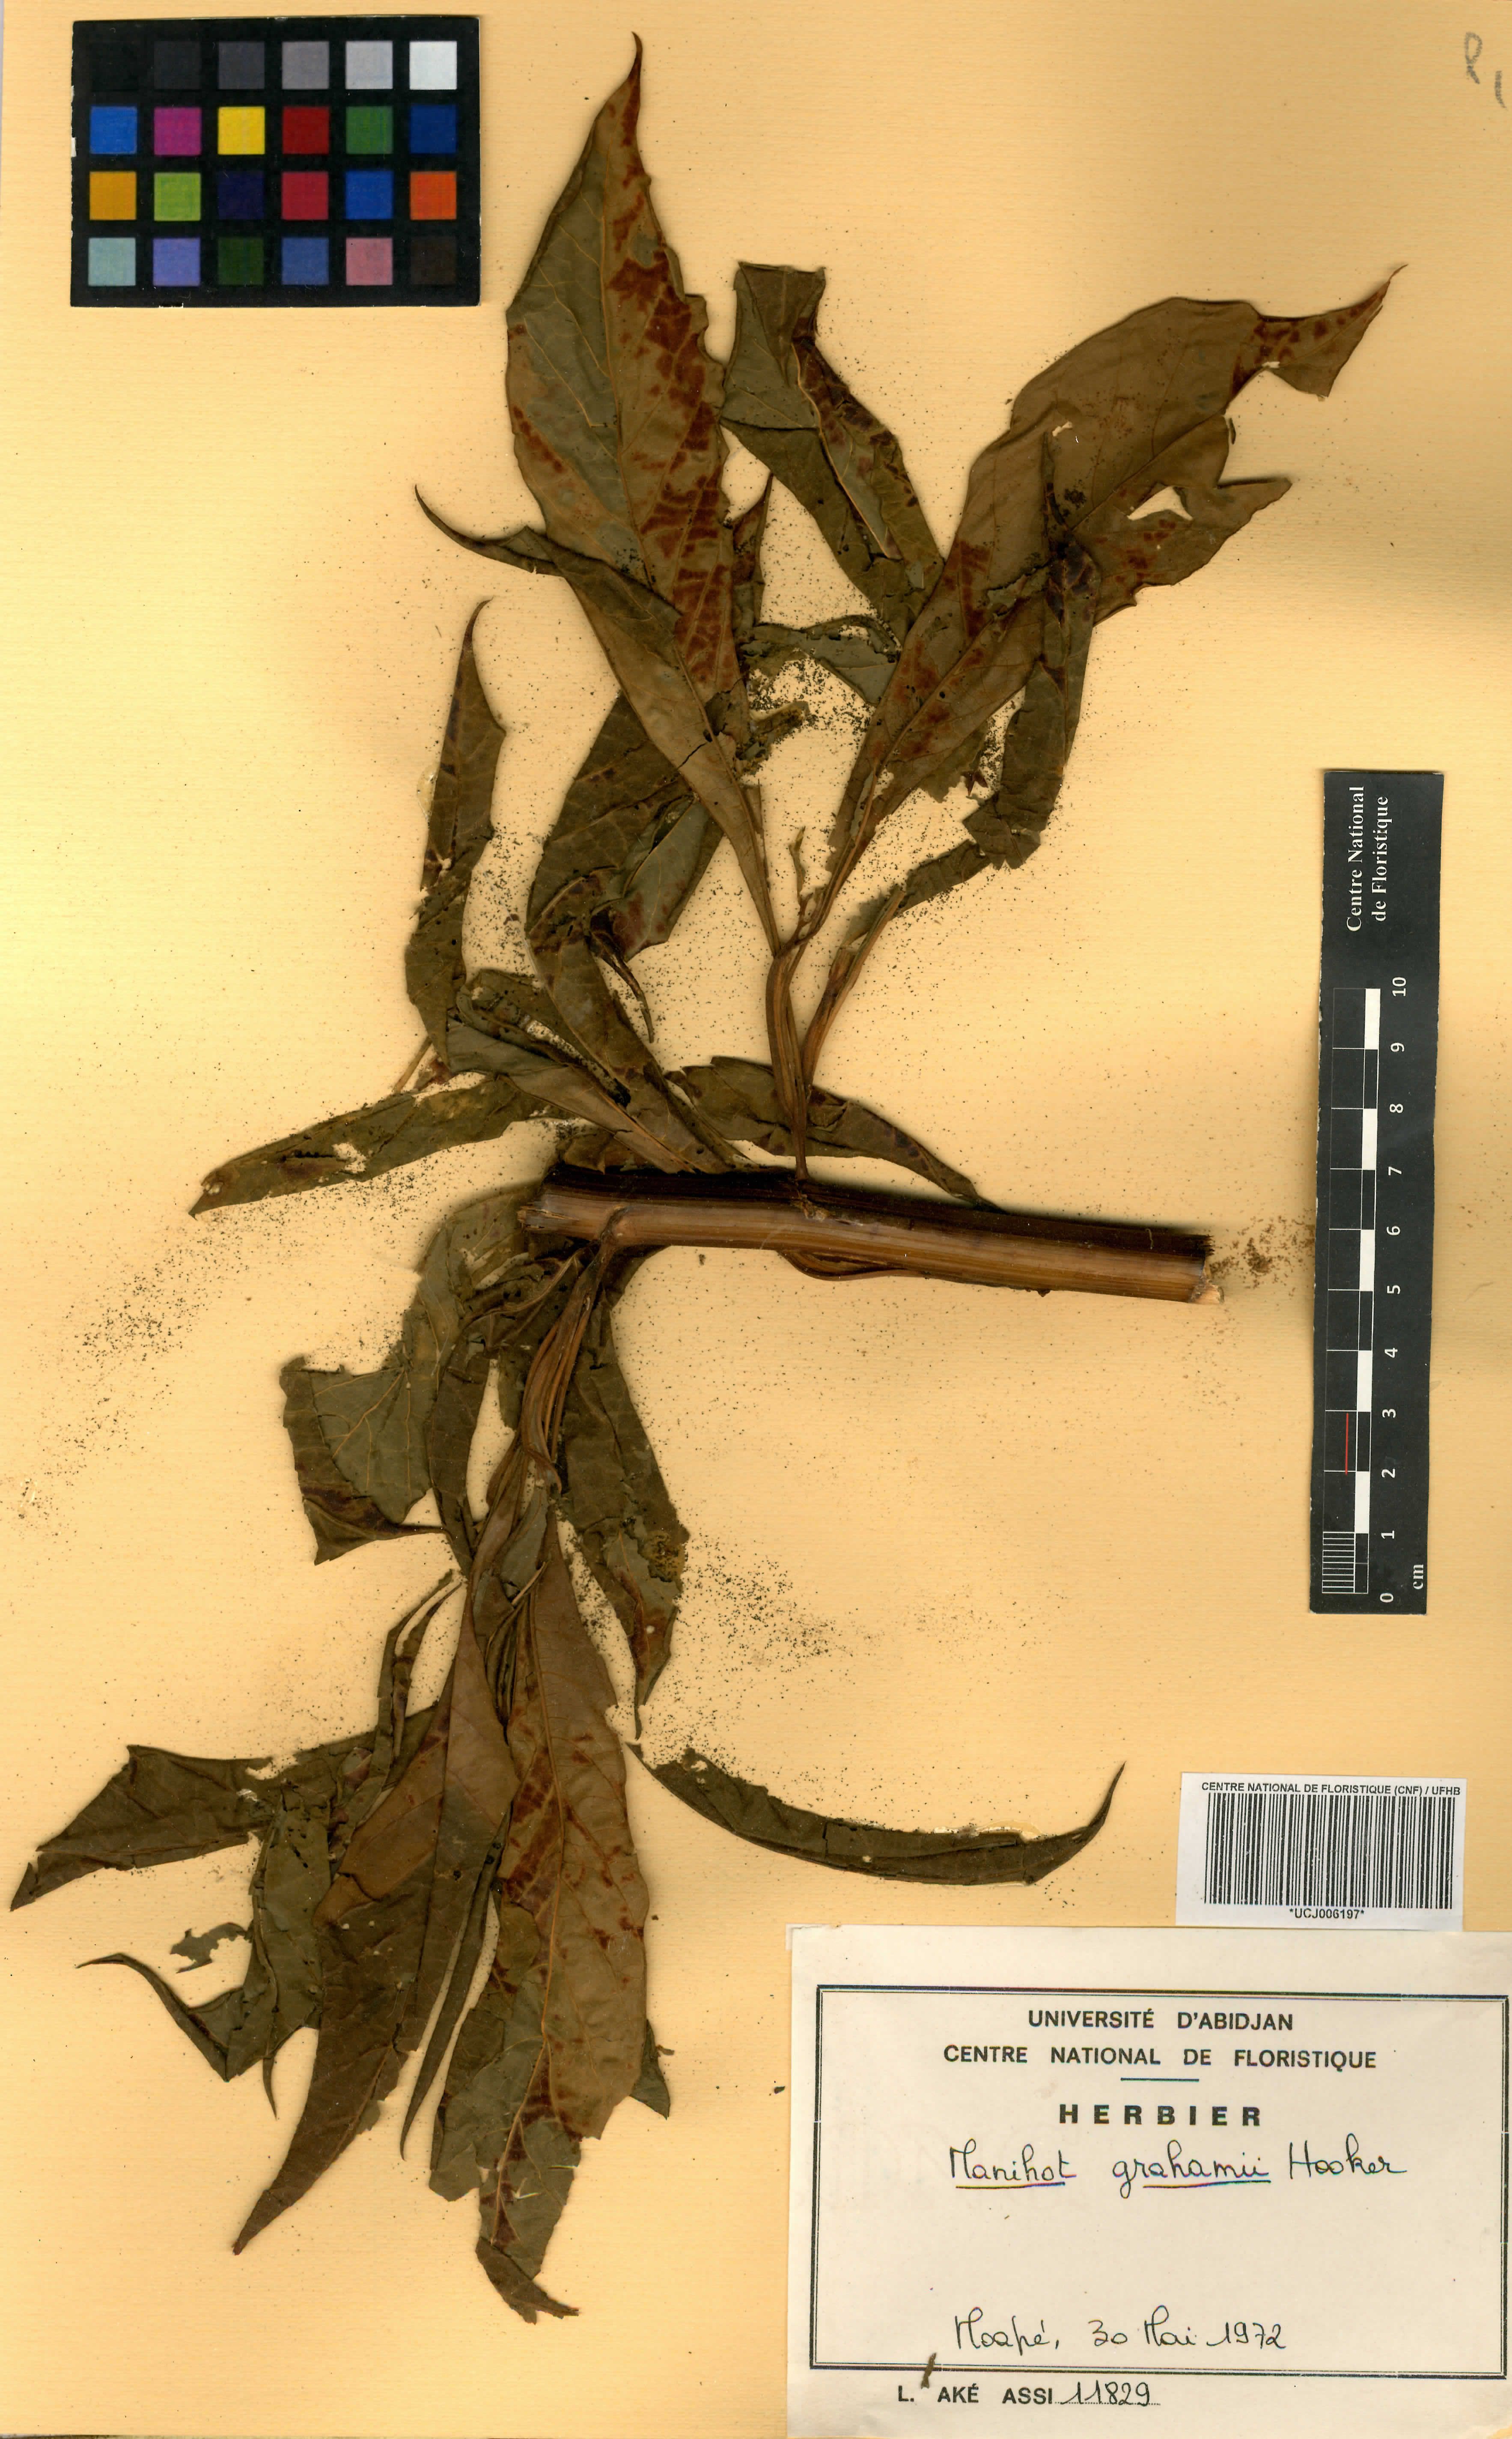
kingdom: Plantae
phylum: Tracheophyta
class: Magnoliopsida
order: Malpighiales
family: Euphorbiaceae
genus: Manihot
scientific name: Manihot grahamii
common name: Graham's manihot
